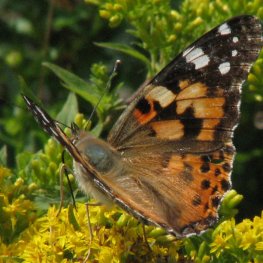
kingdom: Animalia
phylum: Arthropoda
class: Insecta
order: Lepidoptera
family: Nymphalidae
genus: Vanessa
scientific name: Vanessa cardui
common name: Painted Lady
